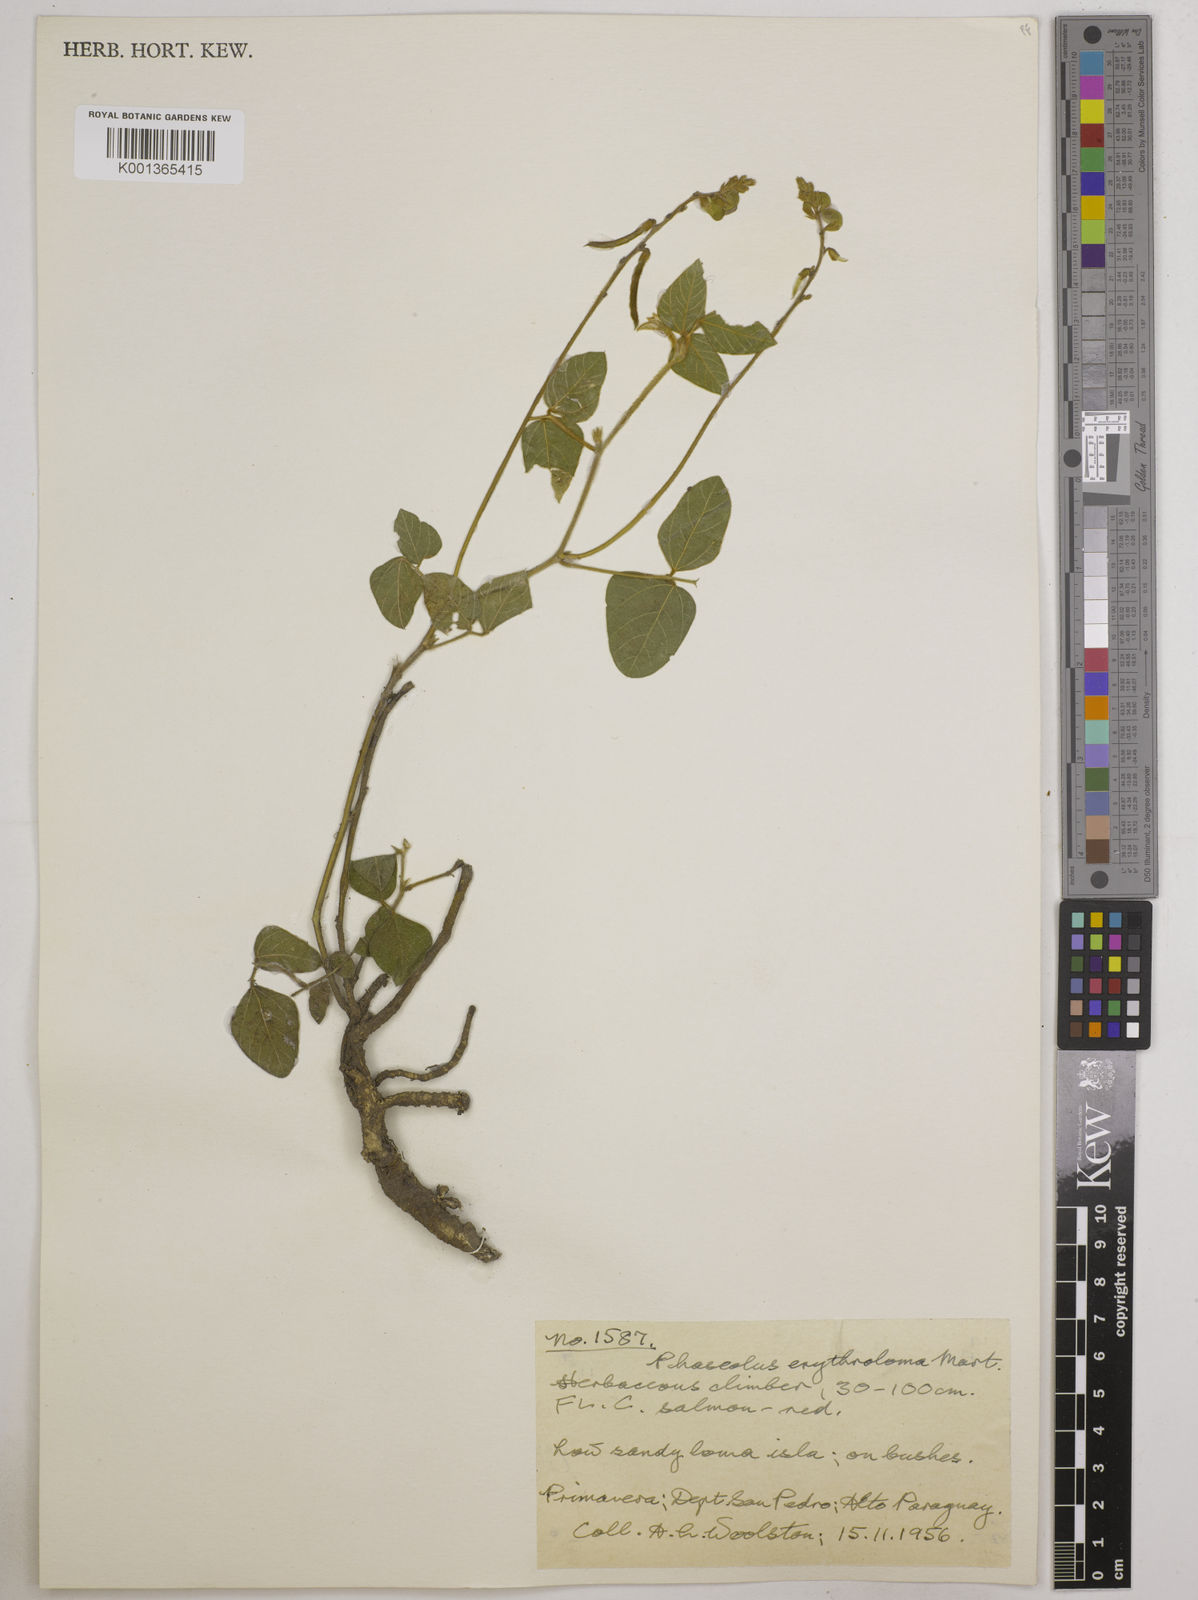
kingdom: Plantae
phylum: Tracheophyta
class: Magnoliopsida
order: Fabales
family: Fabaceae
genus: Macroptilium
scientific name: Macroptilium erythroloma
